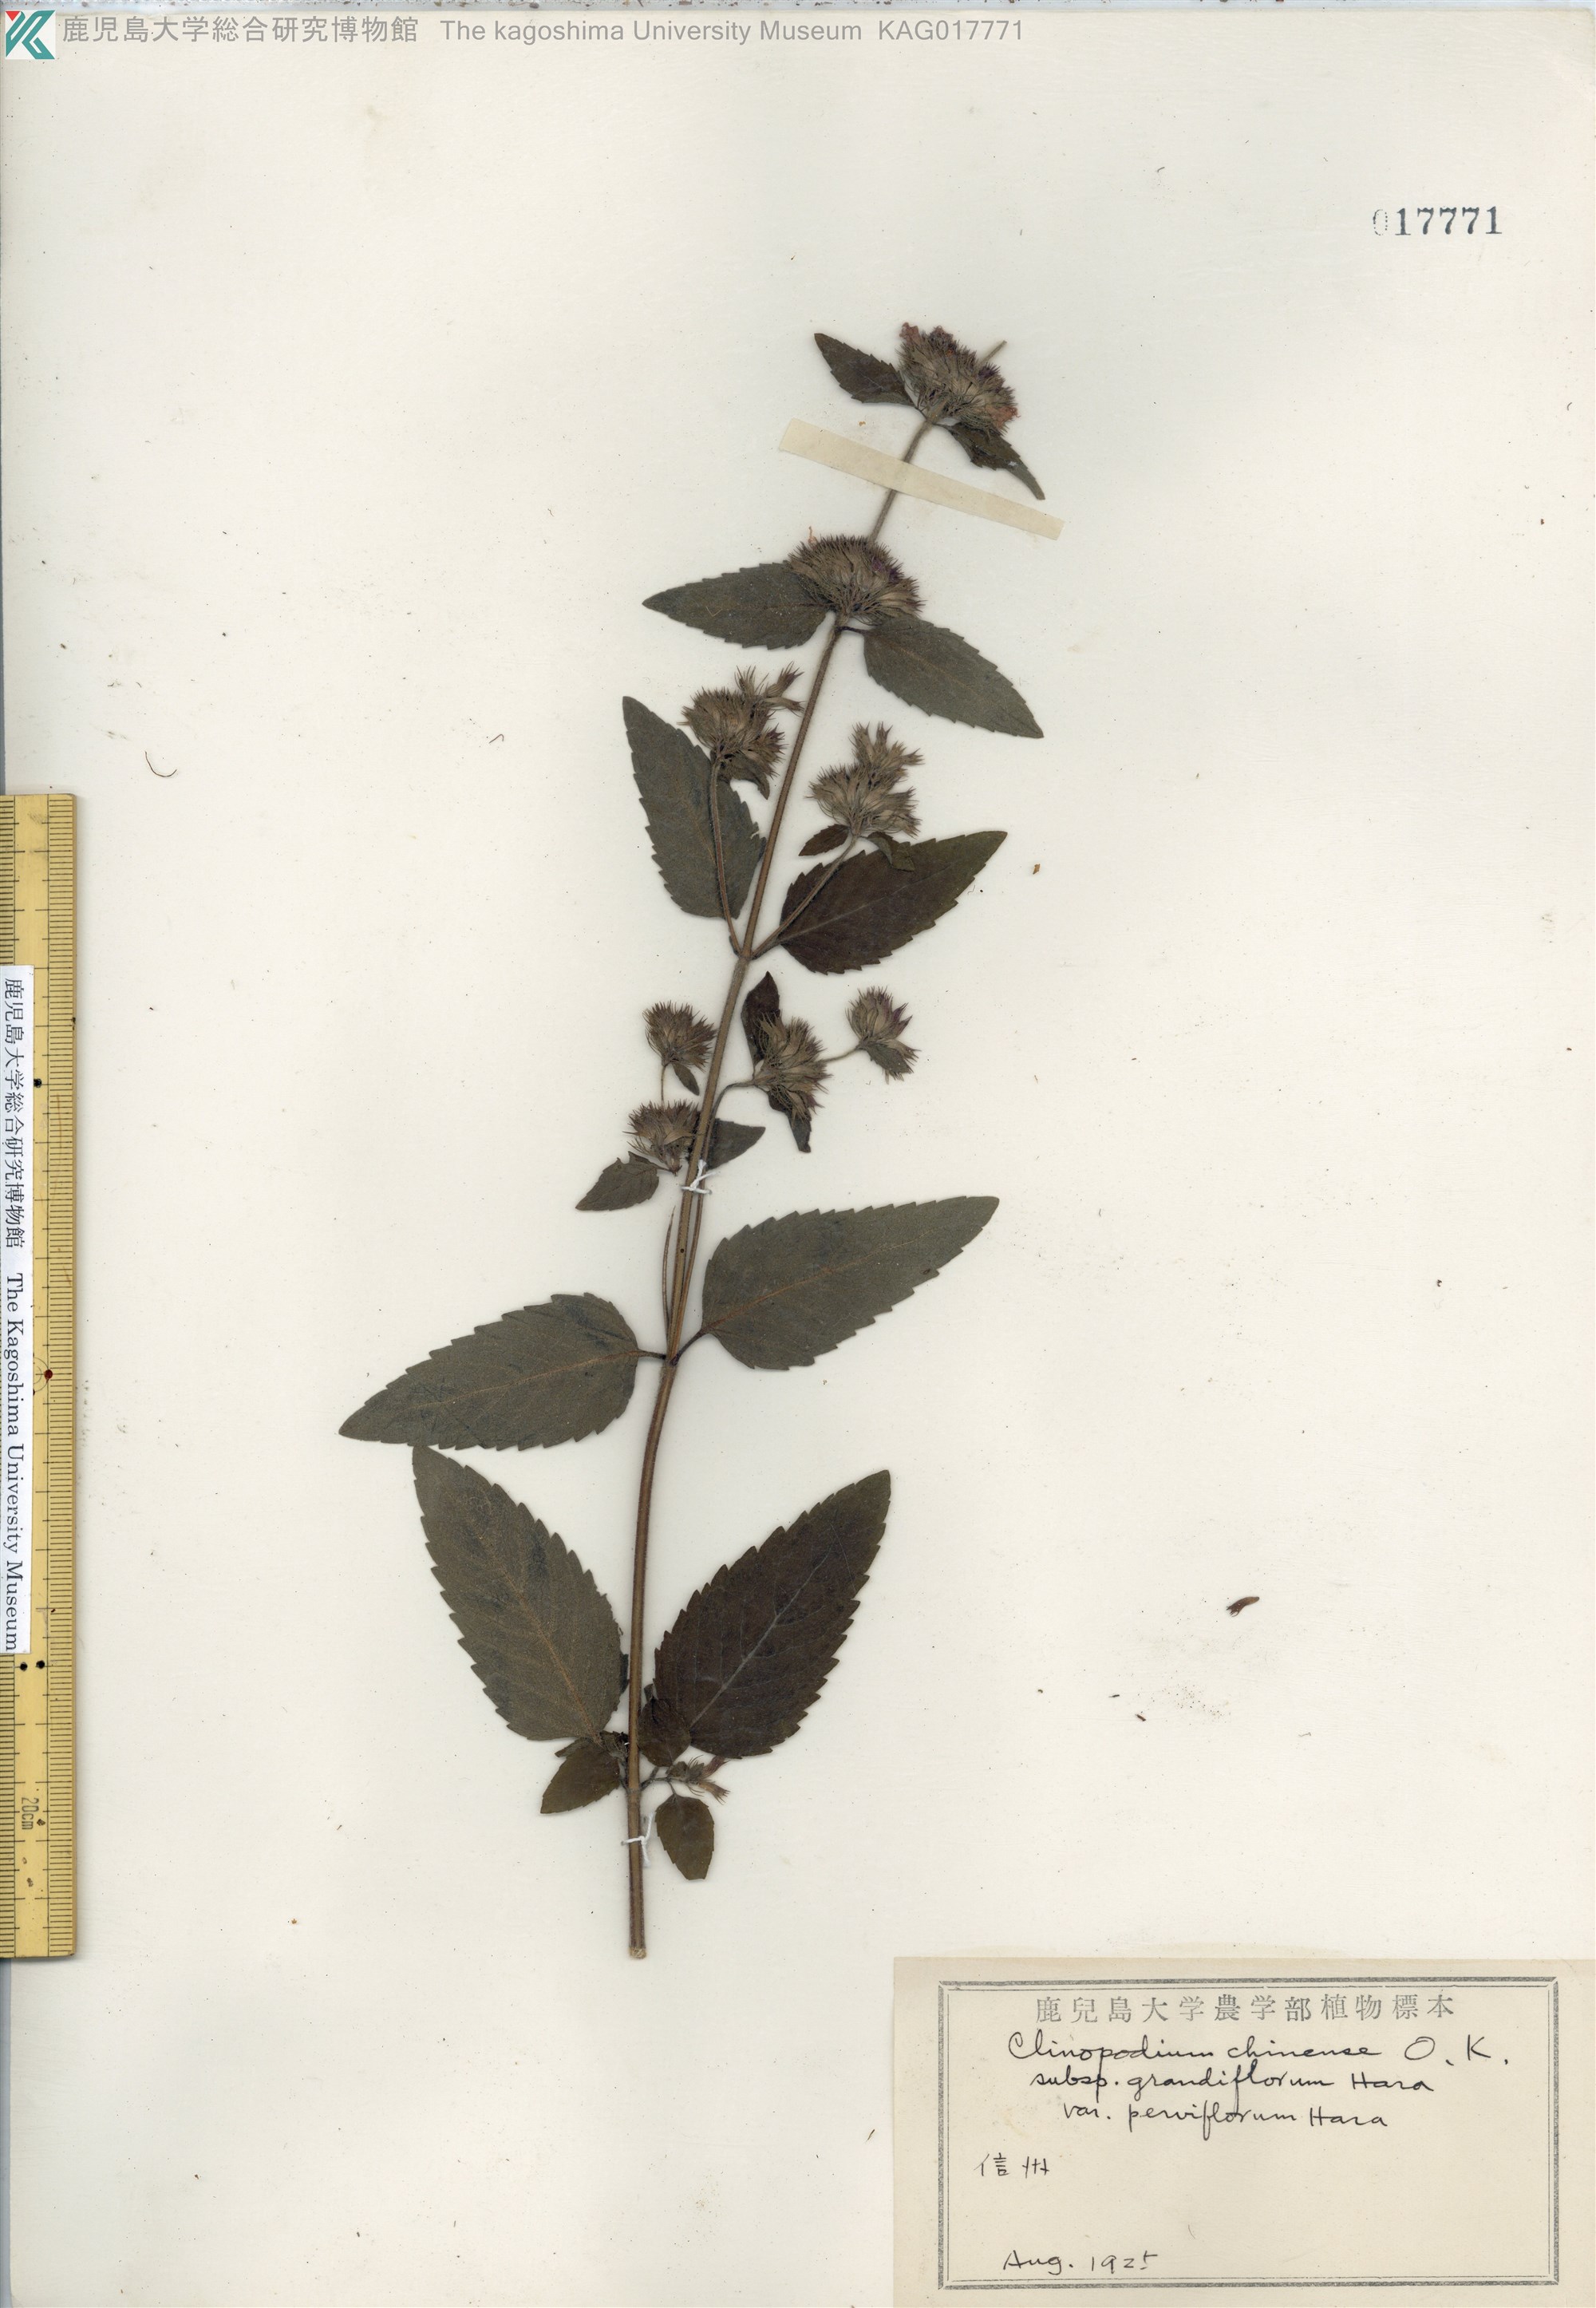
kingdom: Plantae
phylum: Tracheophyta
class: Magnoliopsida
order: Lamiales
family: Lamiaceae
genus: Clinopodium
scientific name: Clinopodium chinense
